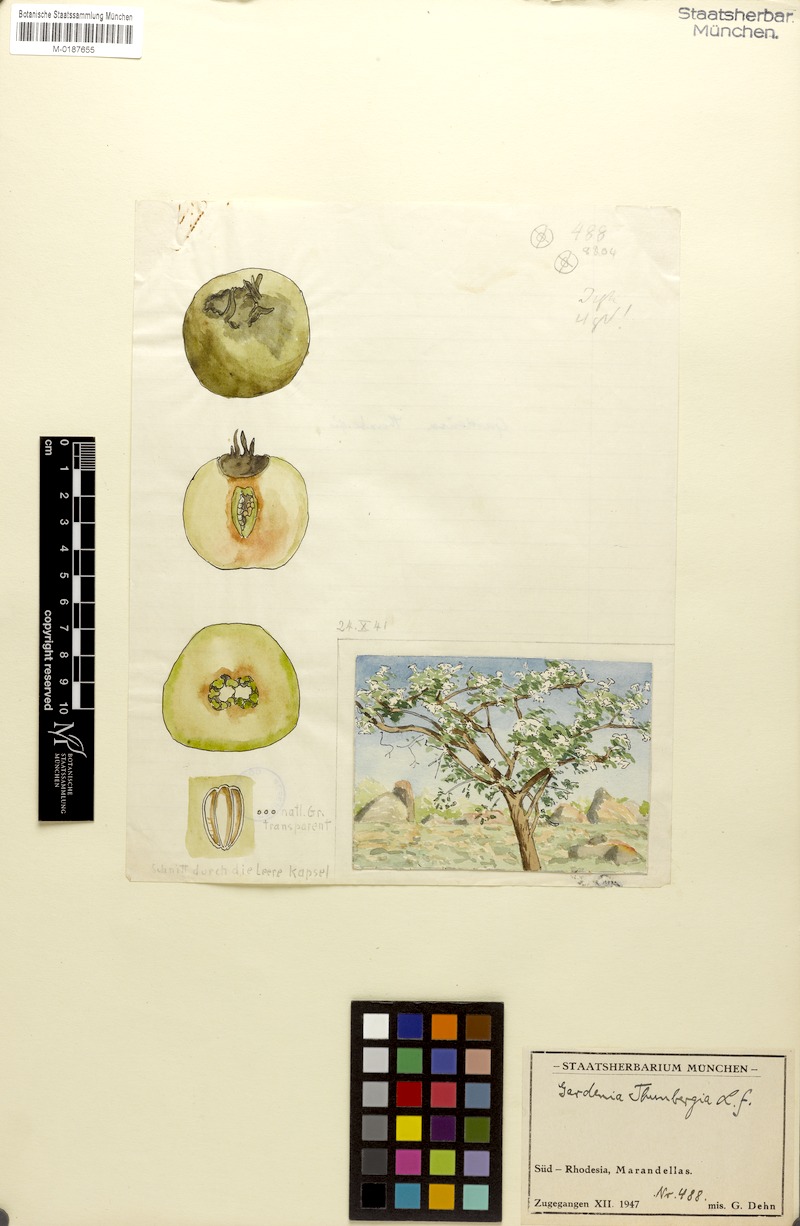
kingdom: Plantae
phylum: Tracheophyta
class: Magnoliopsida
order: Gentianales
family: Rubiaceae
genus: Gardenia
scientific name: Gardenia ternifolia
